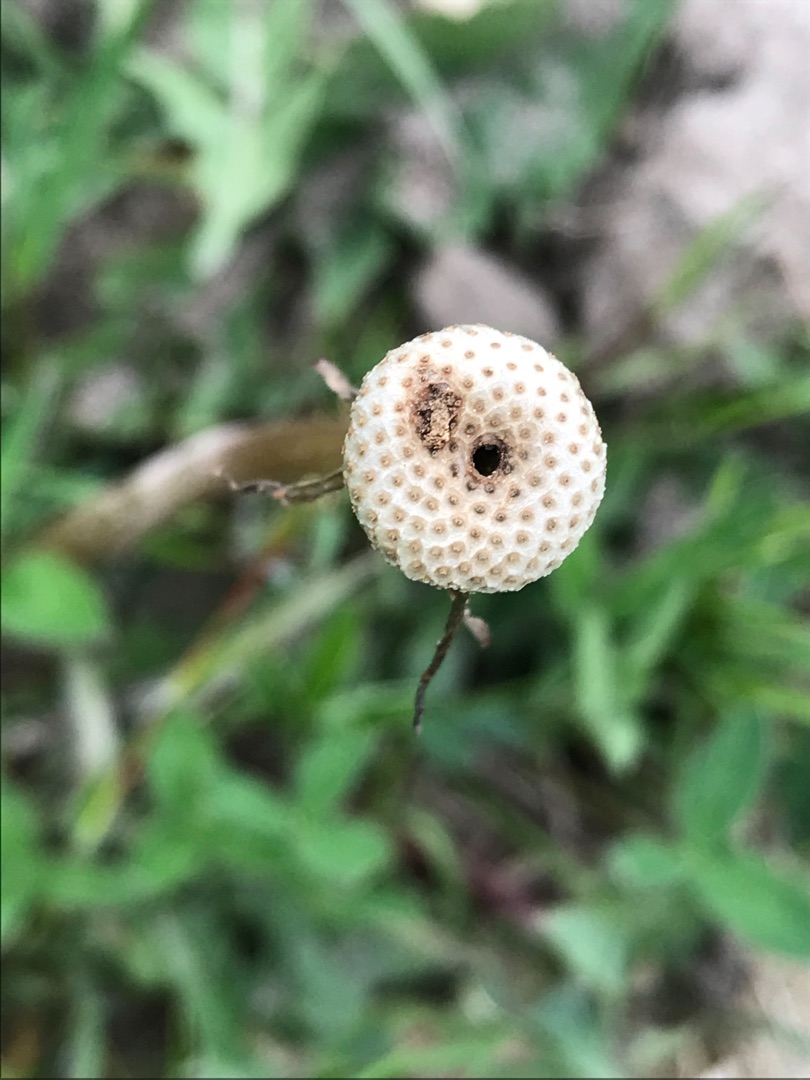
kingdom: Animalia
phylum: Arthropoda
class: Insecta
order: Coleoptera
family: Curculionidae
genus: Rhynchaenus
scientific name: Rhynchaenus punctiger
